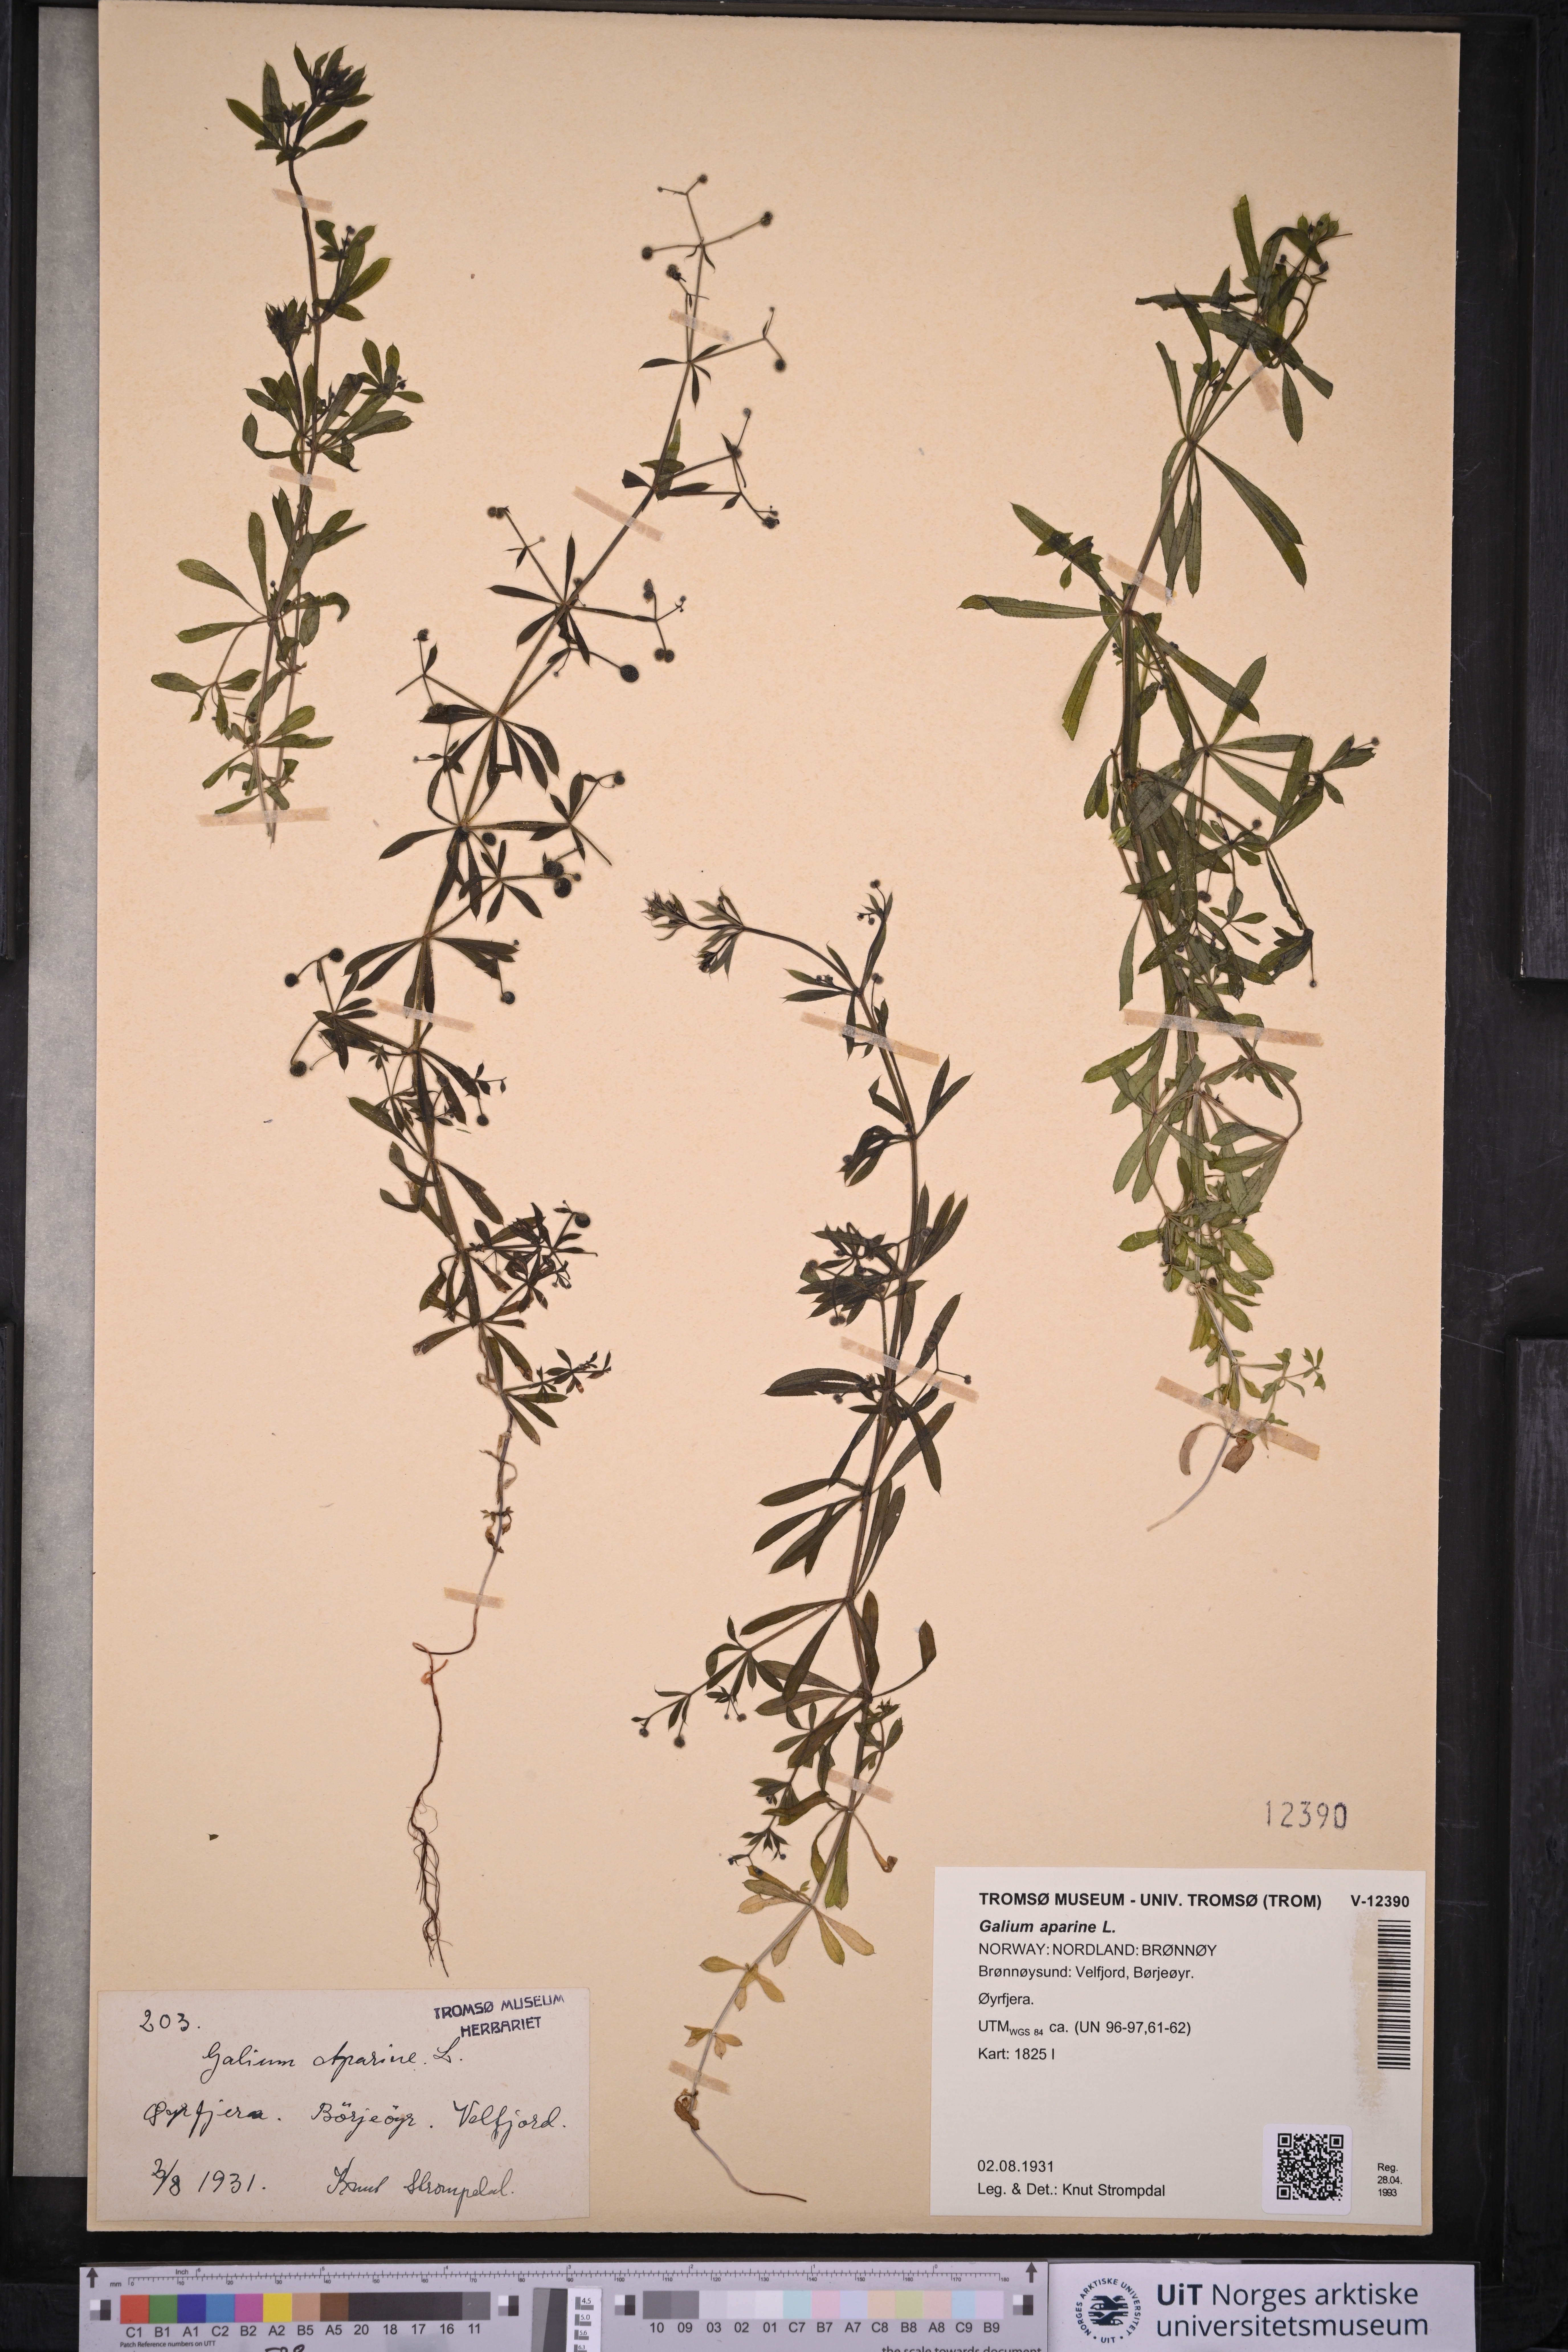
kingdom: Plantae
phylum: Tracheophyta
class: Magnoliopsida
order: Gentianales
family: Rubiaceae
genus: Galium
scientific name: Galium aparine
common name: Cleavers
